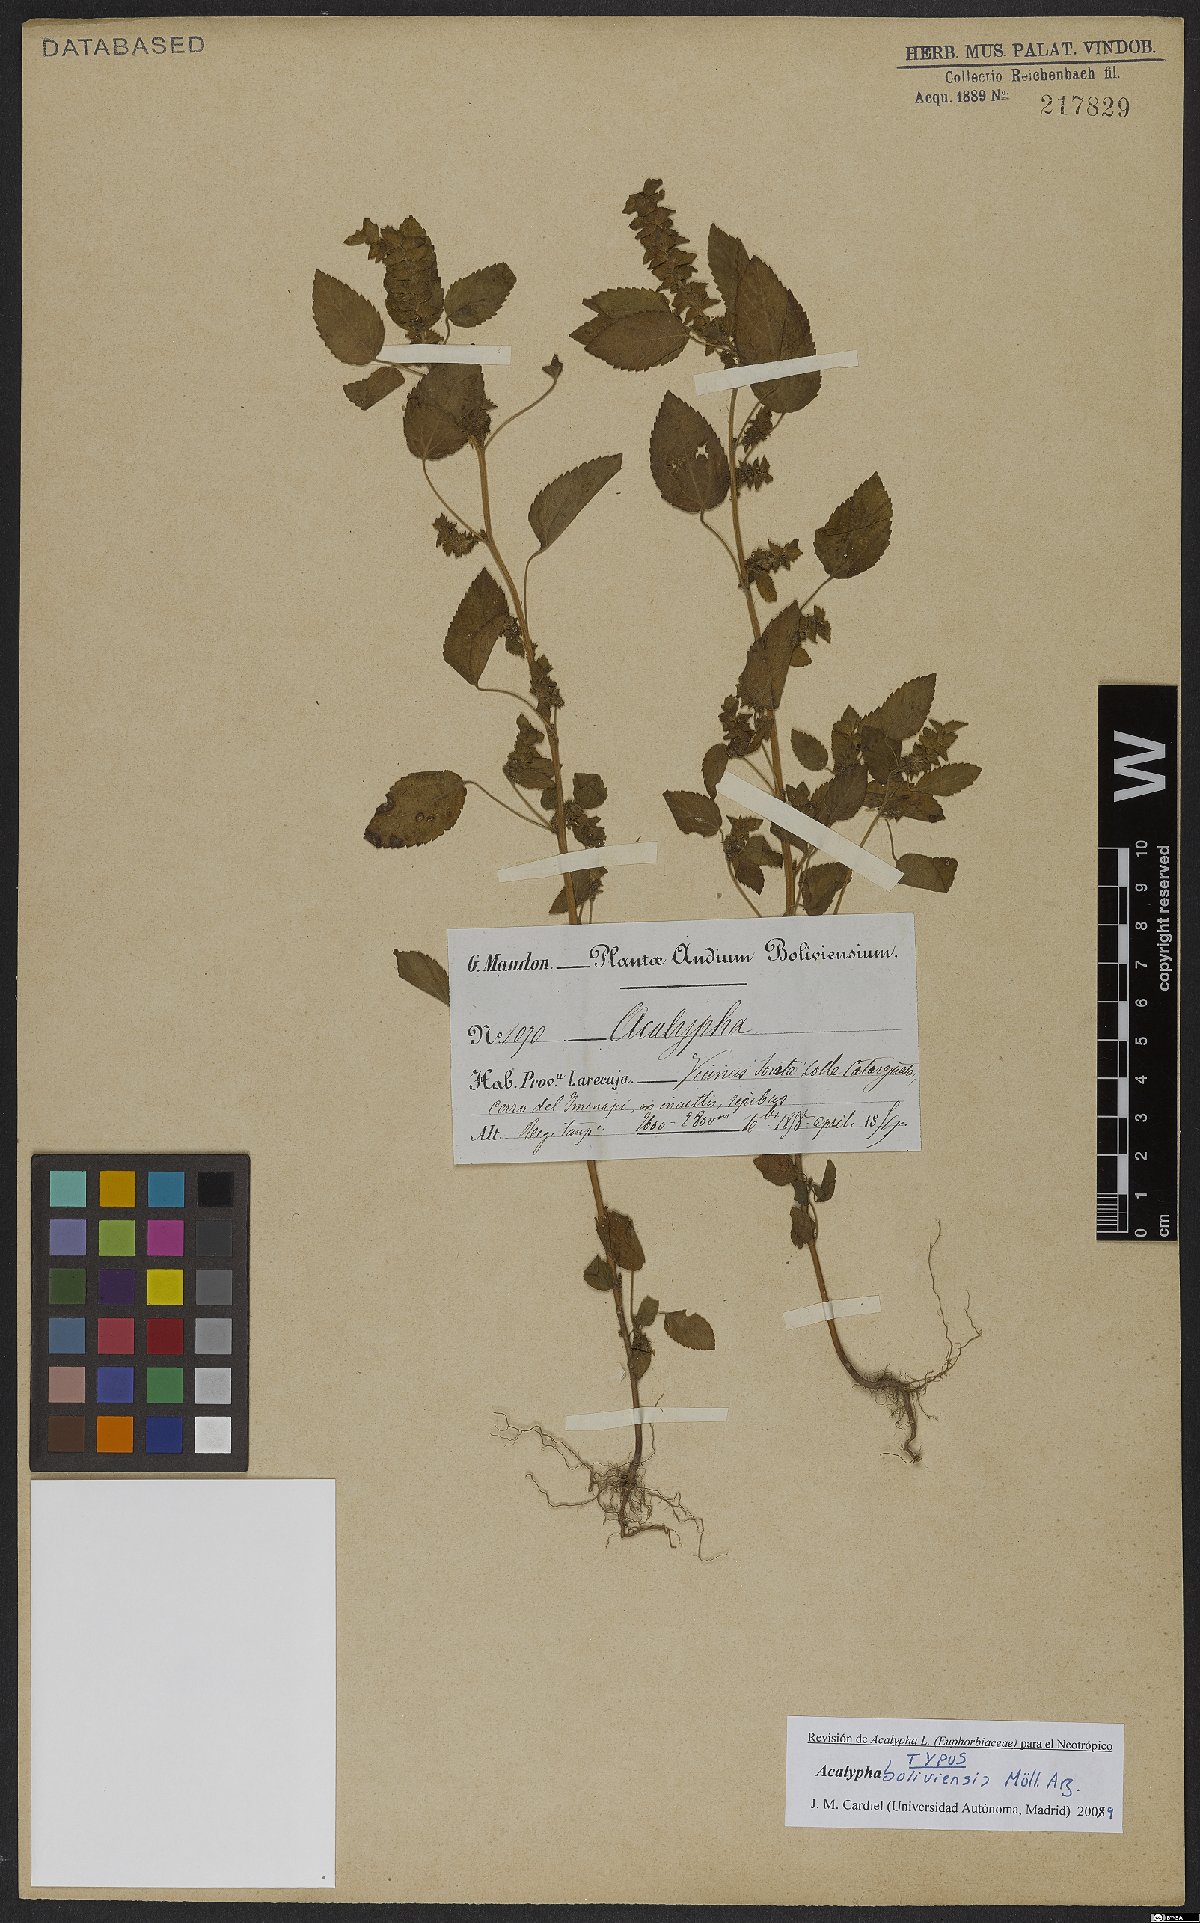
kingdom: Plantae
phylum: Tracheophyta
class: Magnoliopsida
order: Malpighiales
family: Euphorbiaceae
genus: Acalypha
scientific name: Acalypha boliviensis
